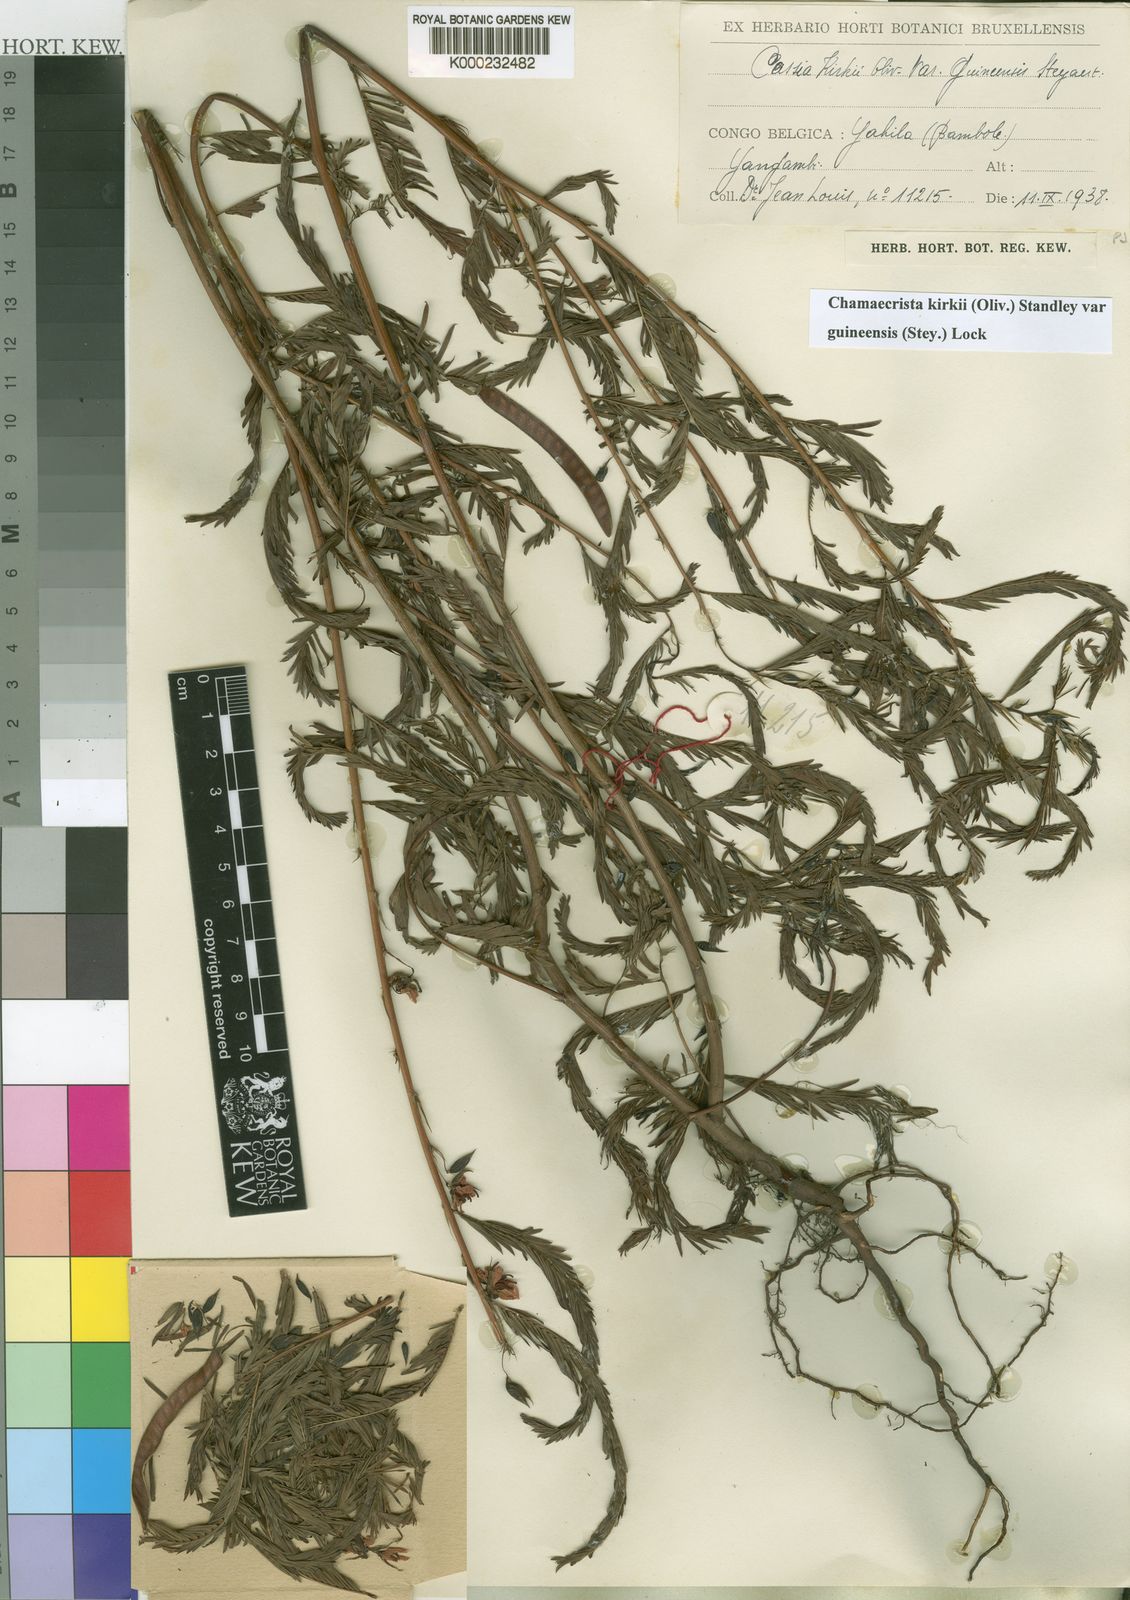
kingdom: Plantae
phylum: Tracheophyta
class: Magnoliopsida
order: Fabales
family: Fabaceae
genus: Chamaecrista
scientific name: Chamaecrista kirkii
